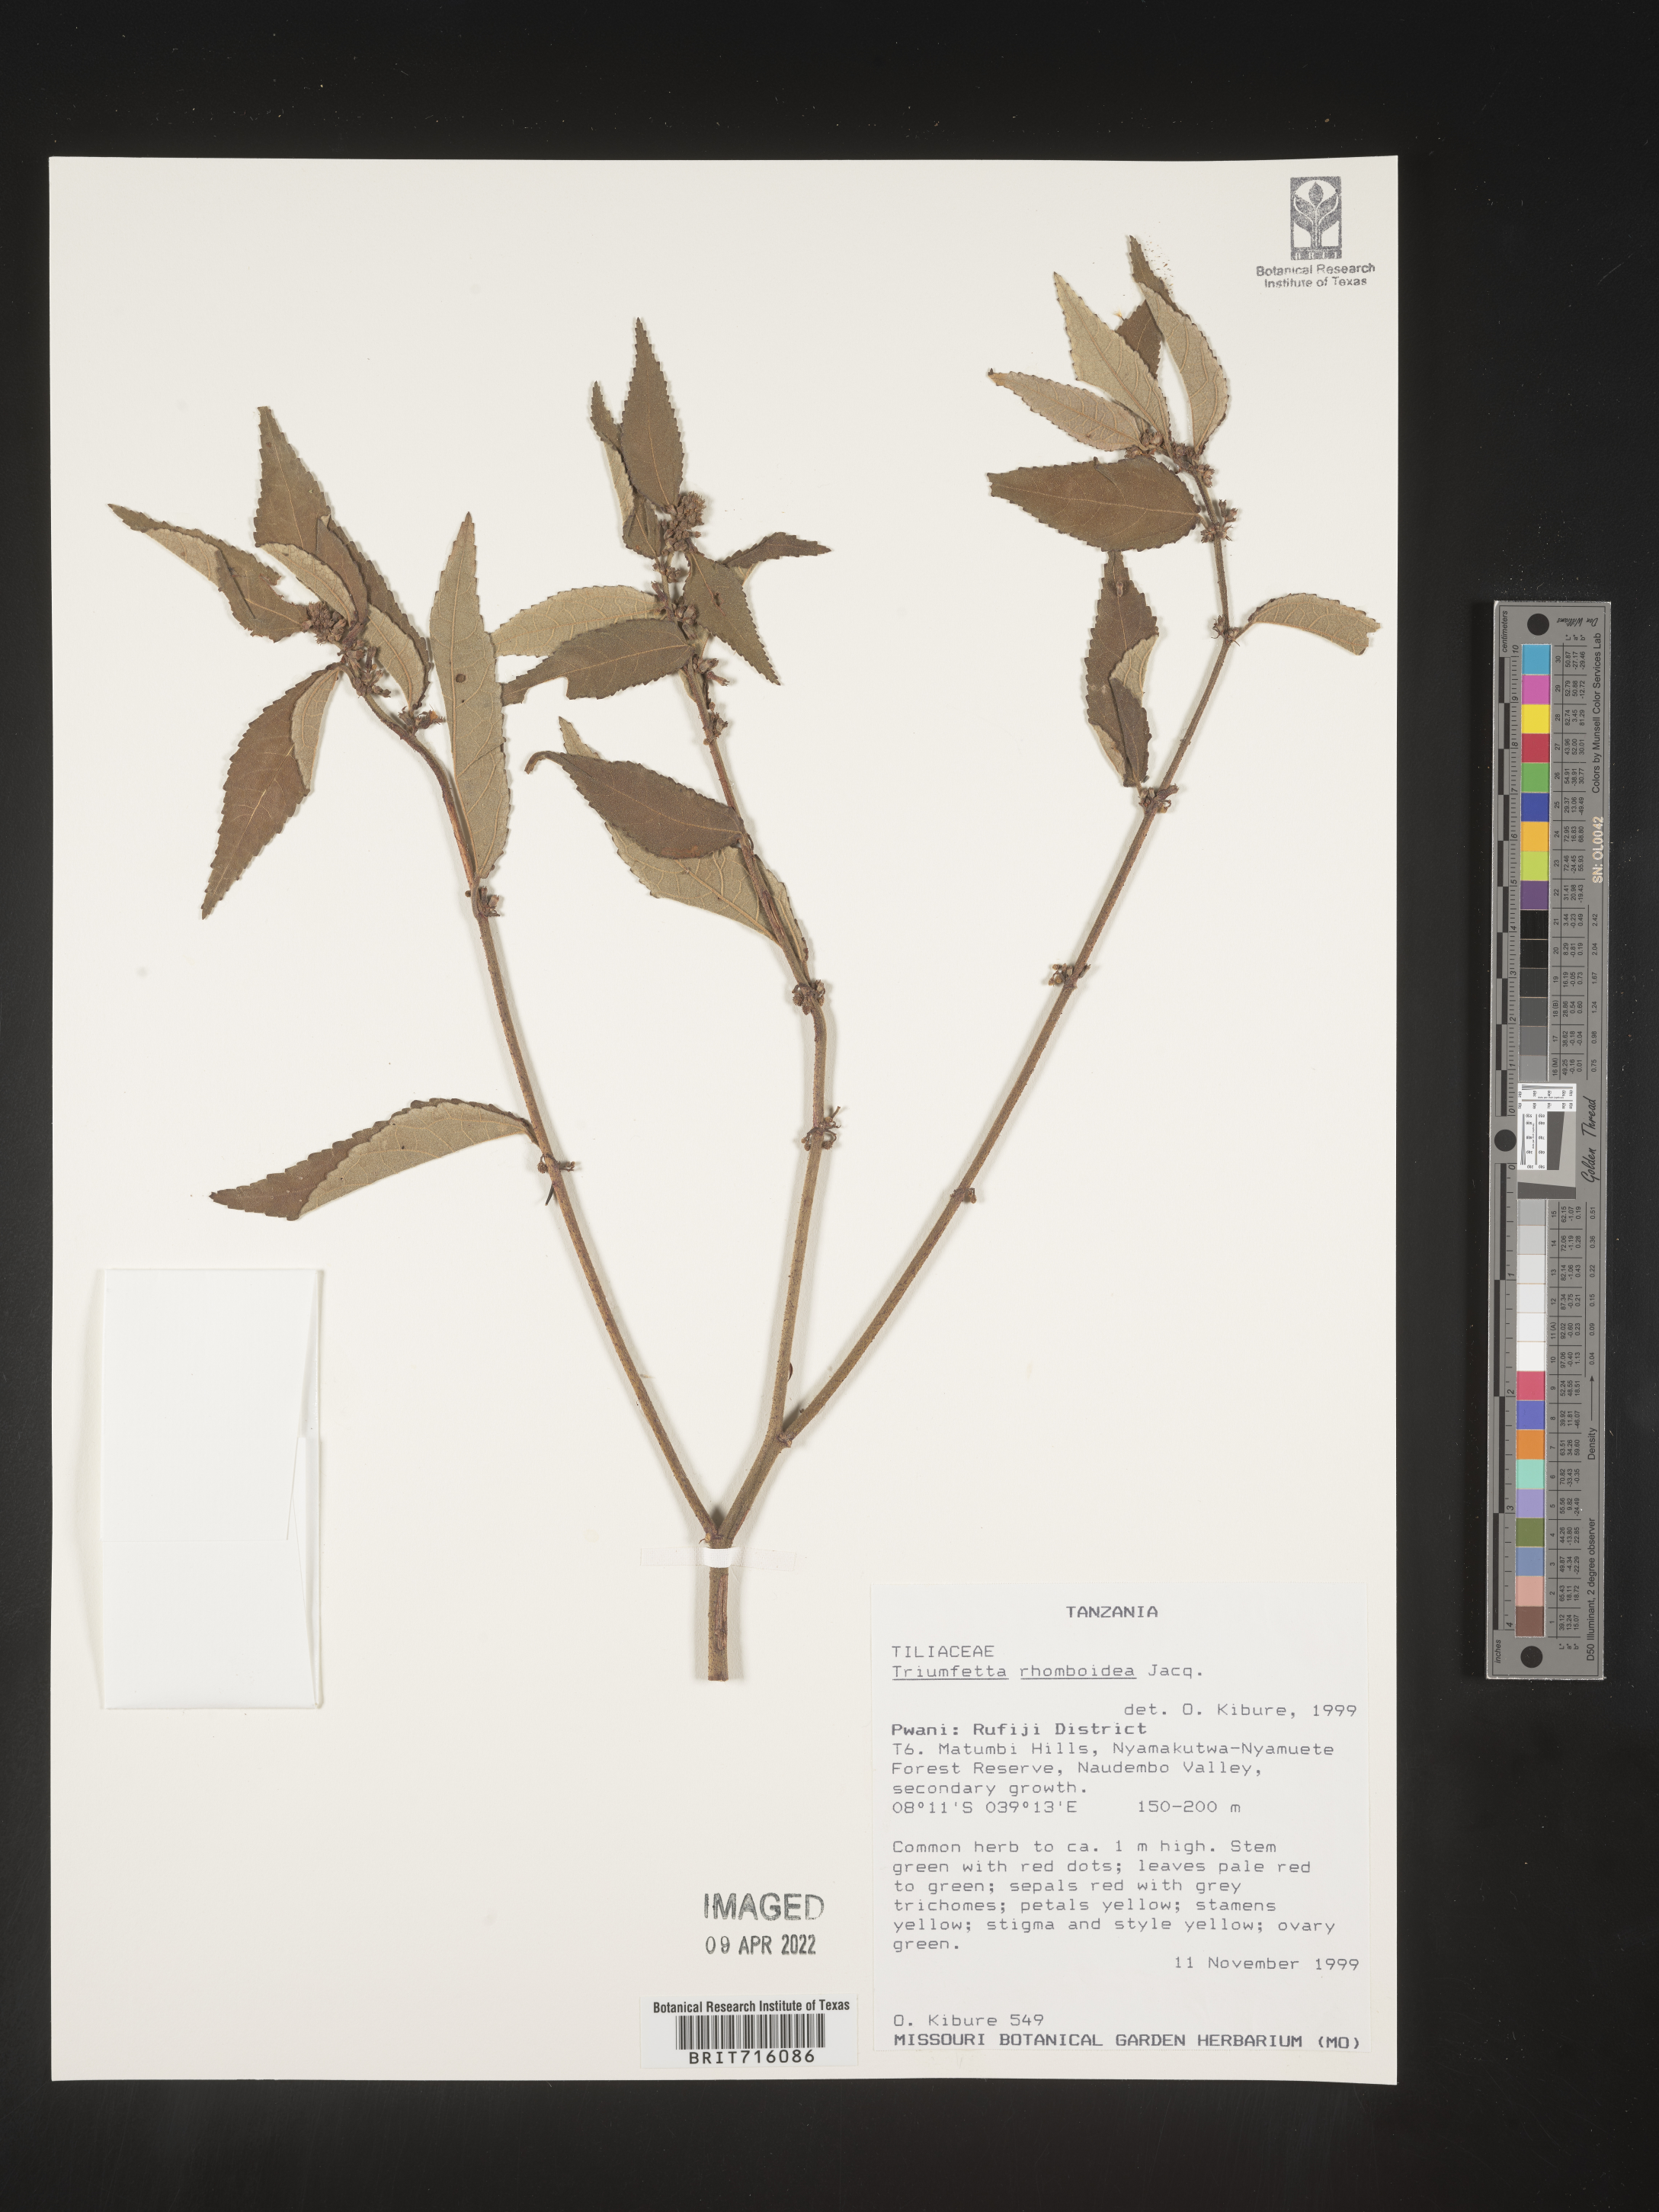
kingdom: Plantae
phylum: Tracheophyta
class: Magnoliopsida
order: Malvales
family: Malvaceae
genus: Triumfetta
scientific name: Triumfetta rhomboidea
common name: Diamond burbark
